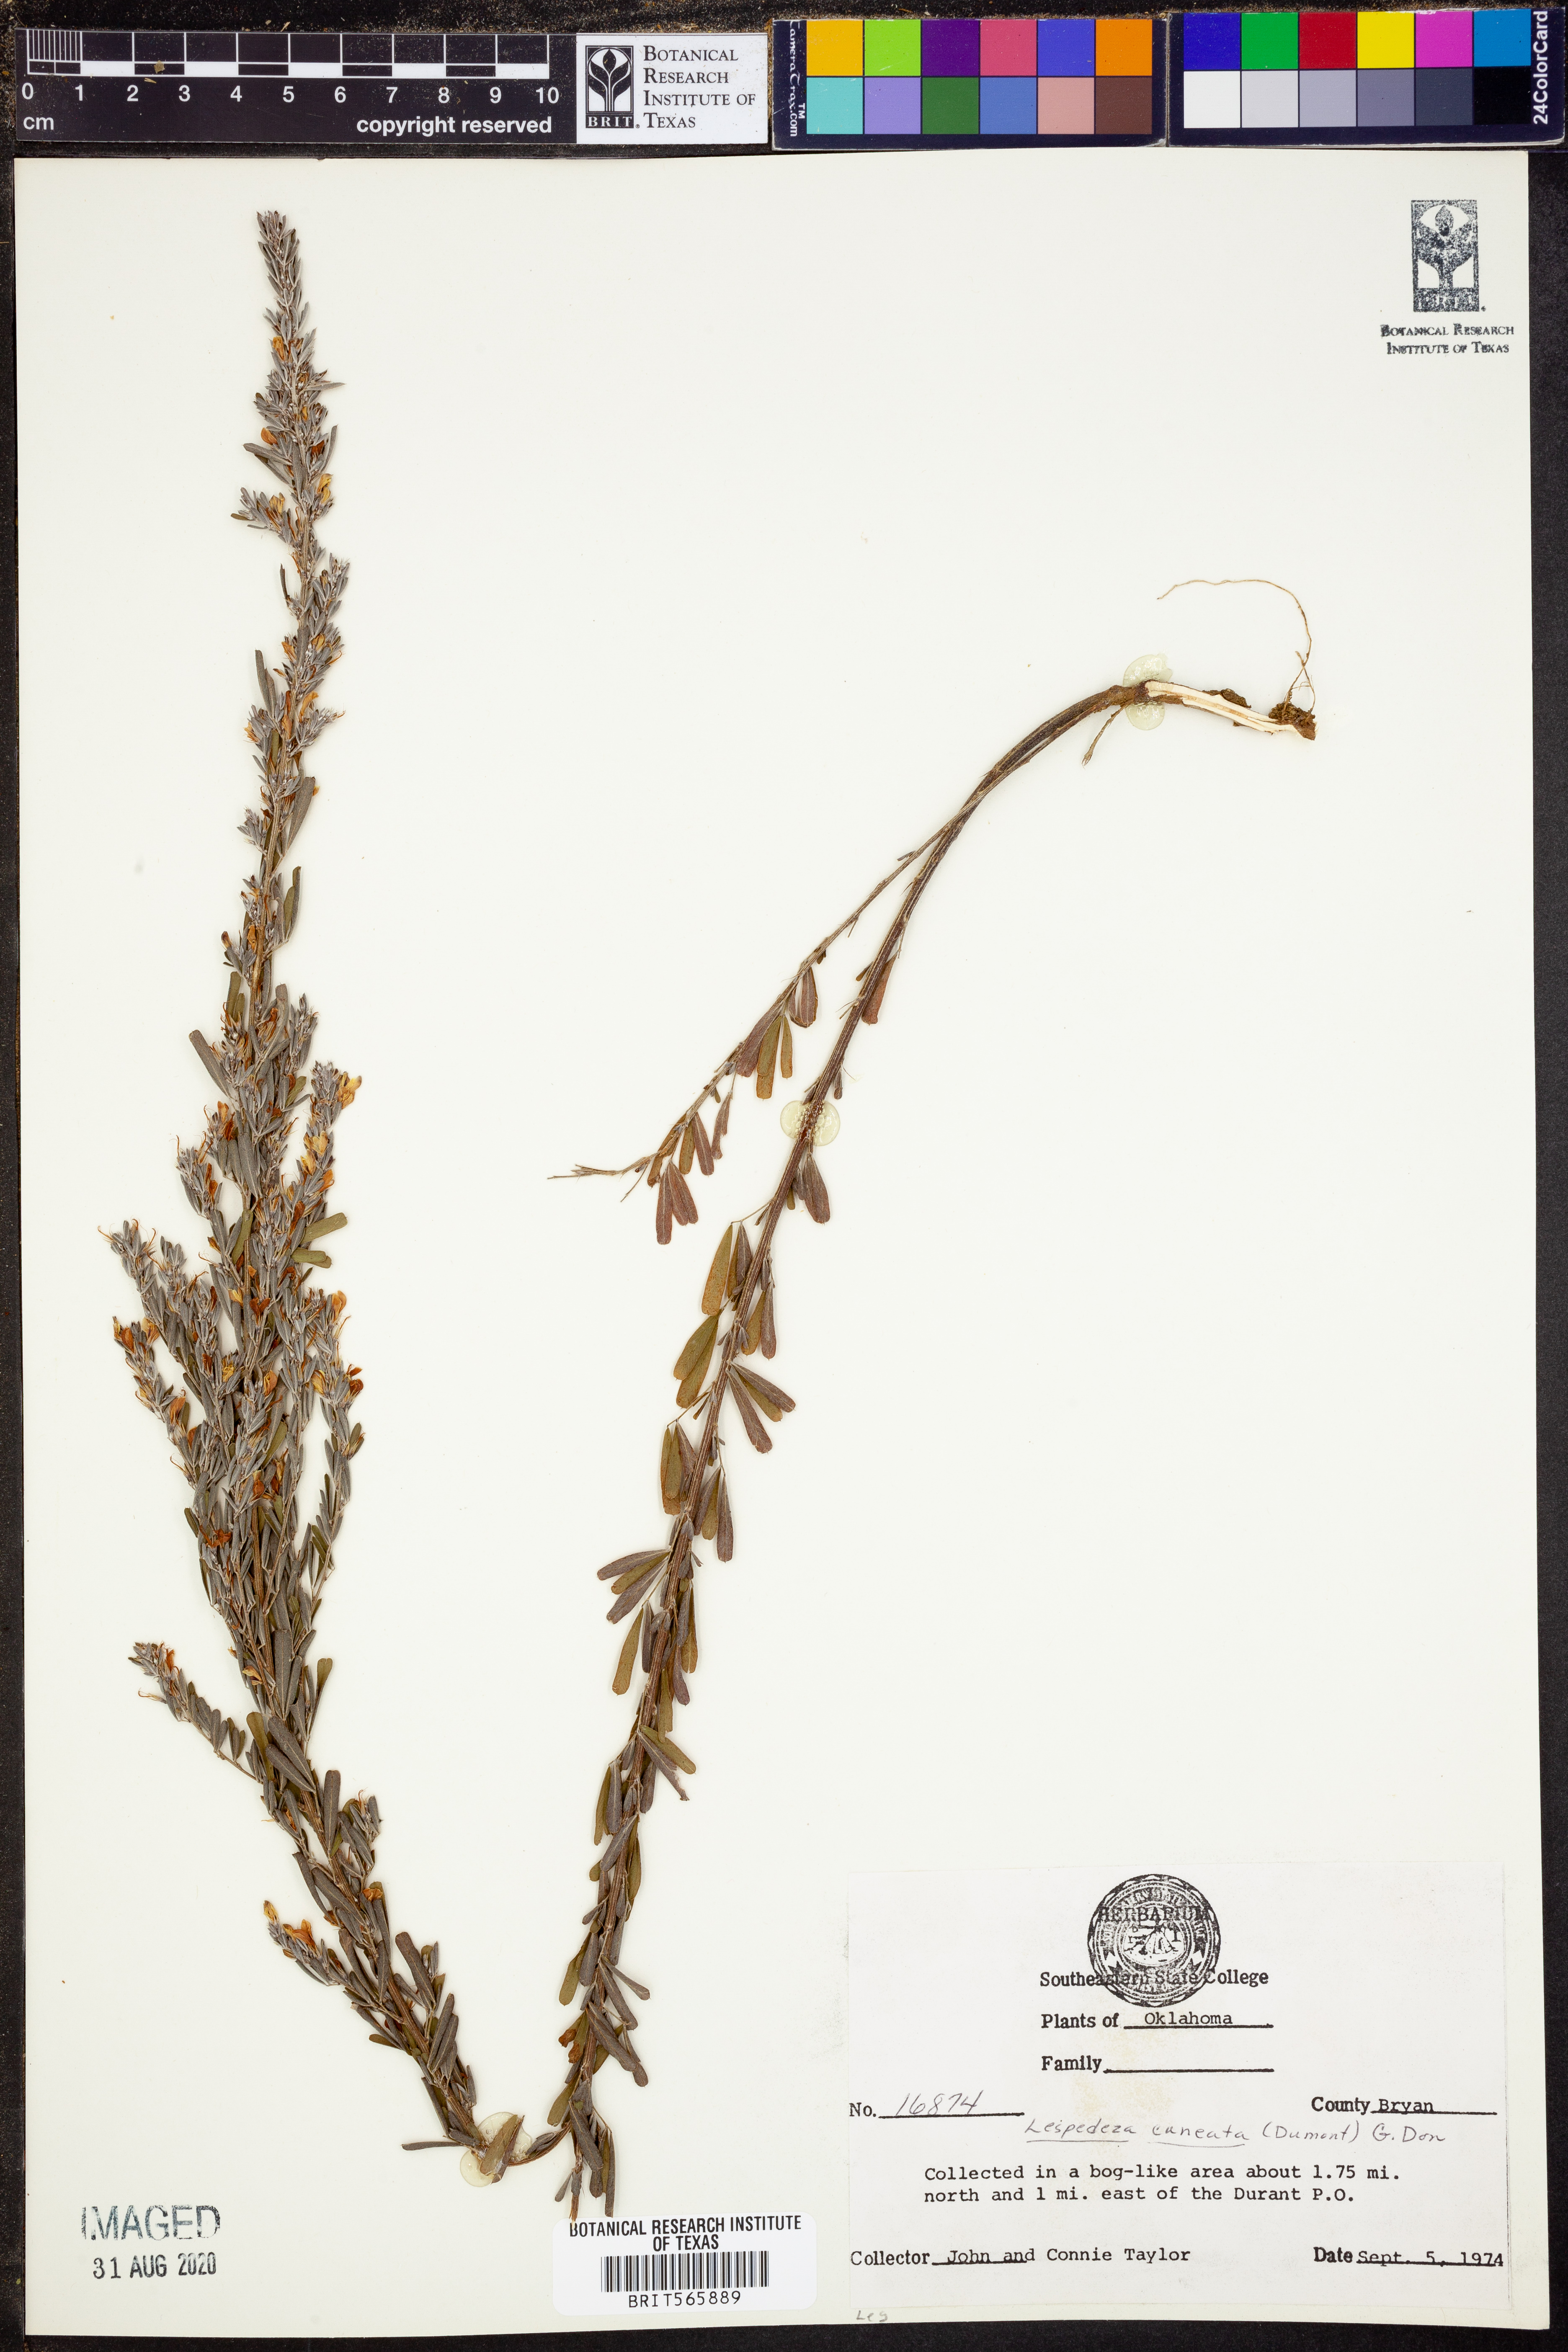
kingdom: Plantae
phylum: Tracheophyta
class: Magnoliopsida
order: Fabales
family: Fabaceae
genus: Lespedeza
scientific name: Lespedeza cuneata
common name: Chinese bush-clover
